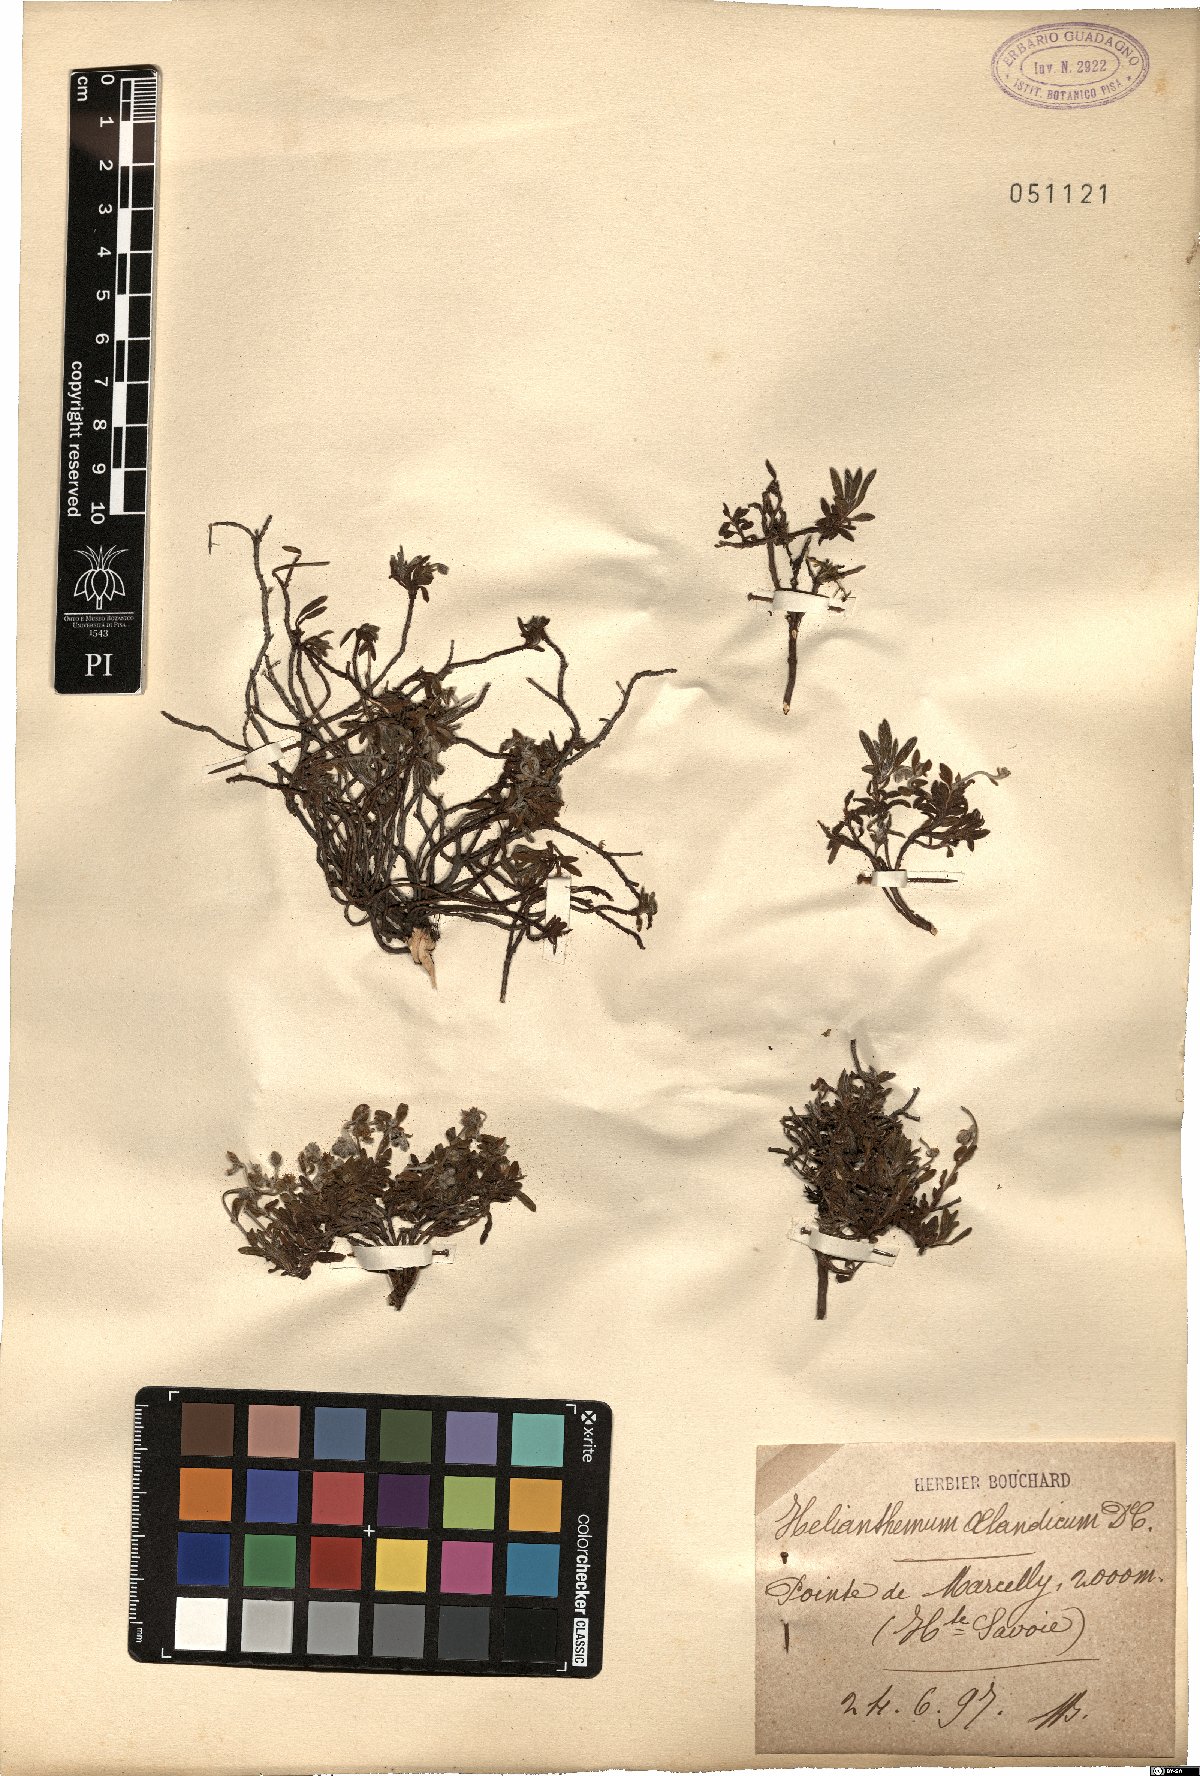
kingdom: Plantae
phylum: Tracheophyta
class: Magnoliopsida
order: Malvales
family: Cistaceae
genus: Helianthemum
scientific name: Helianthemum oelandicum
